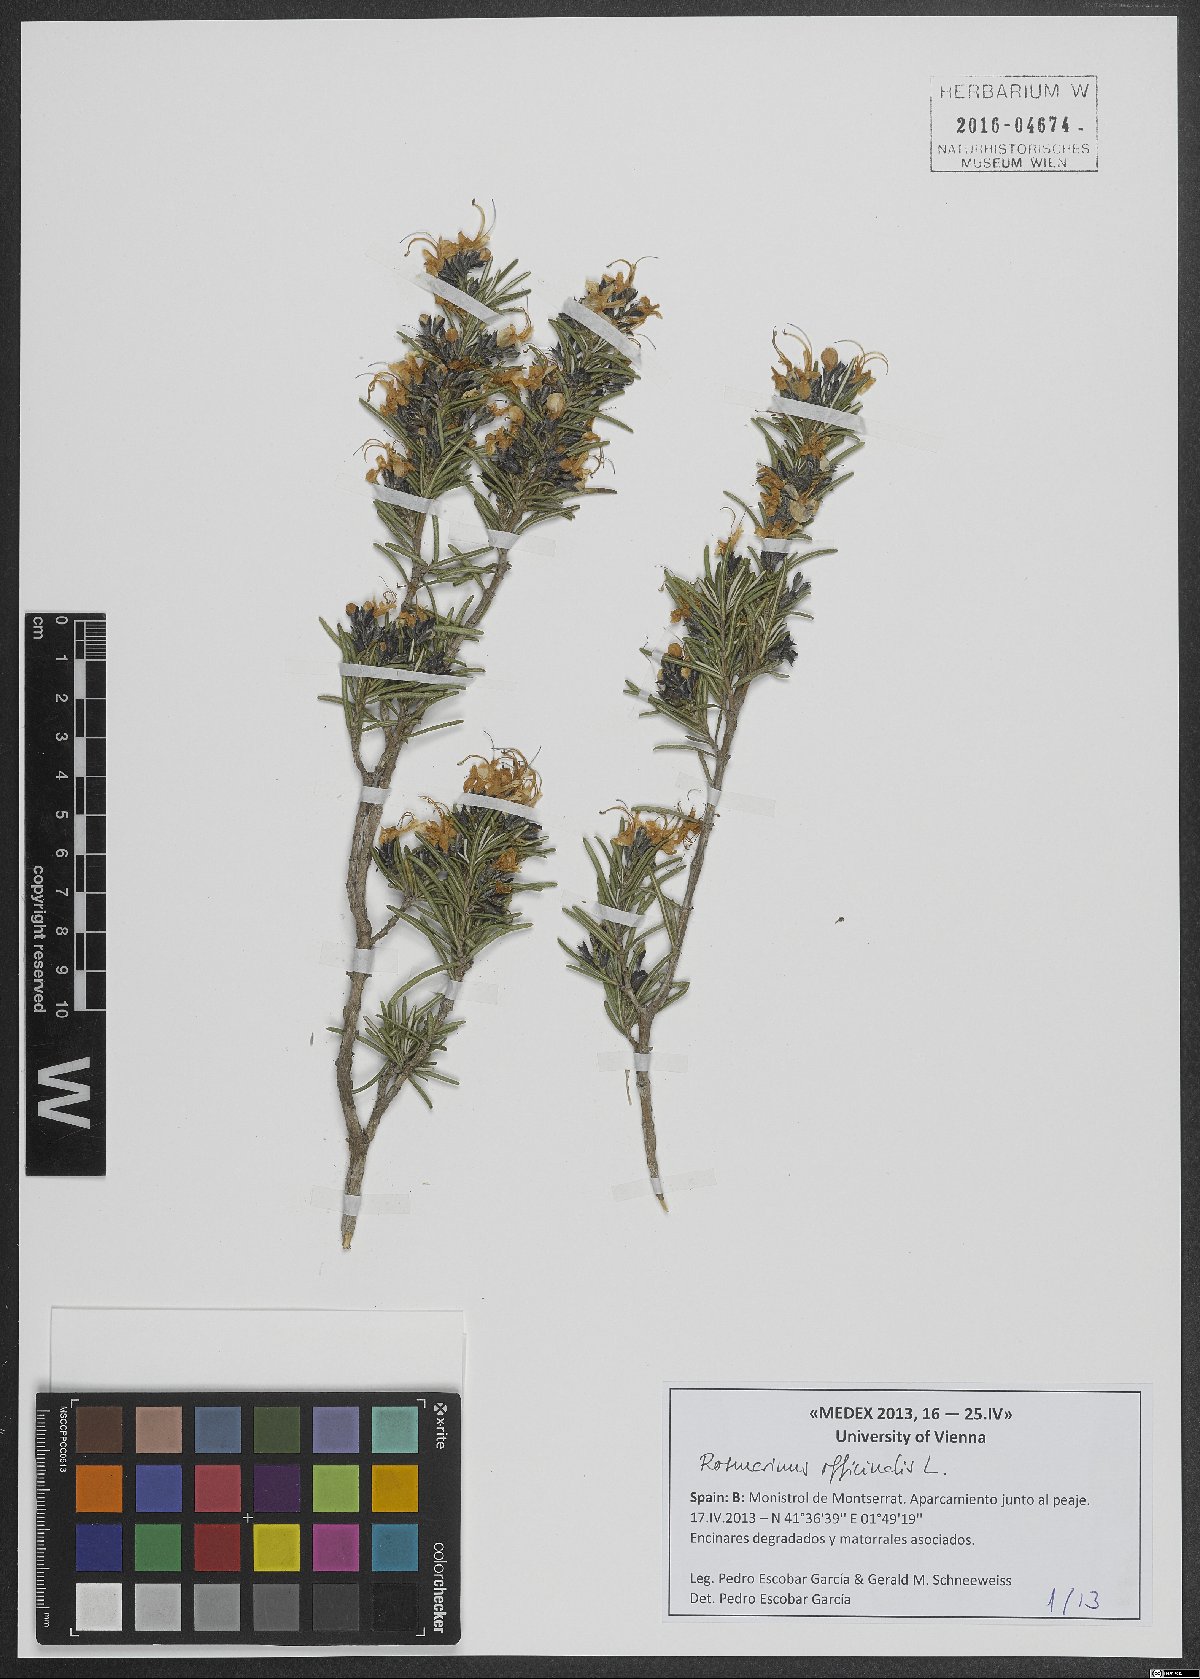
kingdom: Plantae
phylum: Tracheophyta
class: Magnoliopsida
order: Lamiales
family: Lamiaceae
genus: Salvia
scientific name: Salvia rosmarinus
